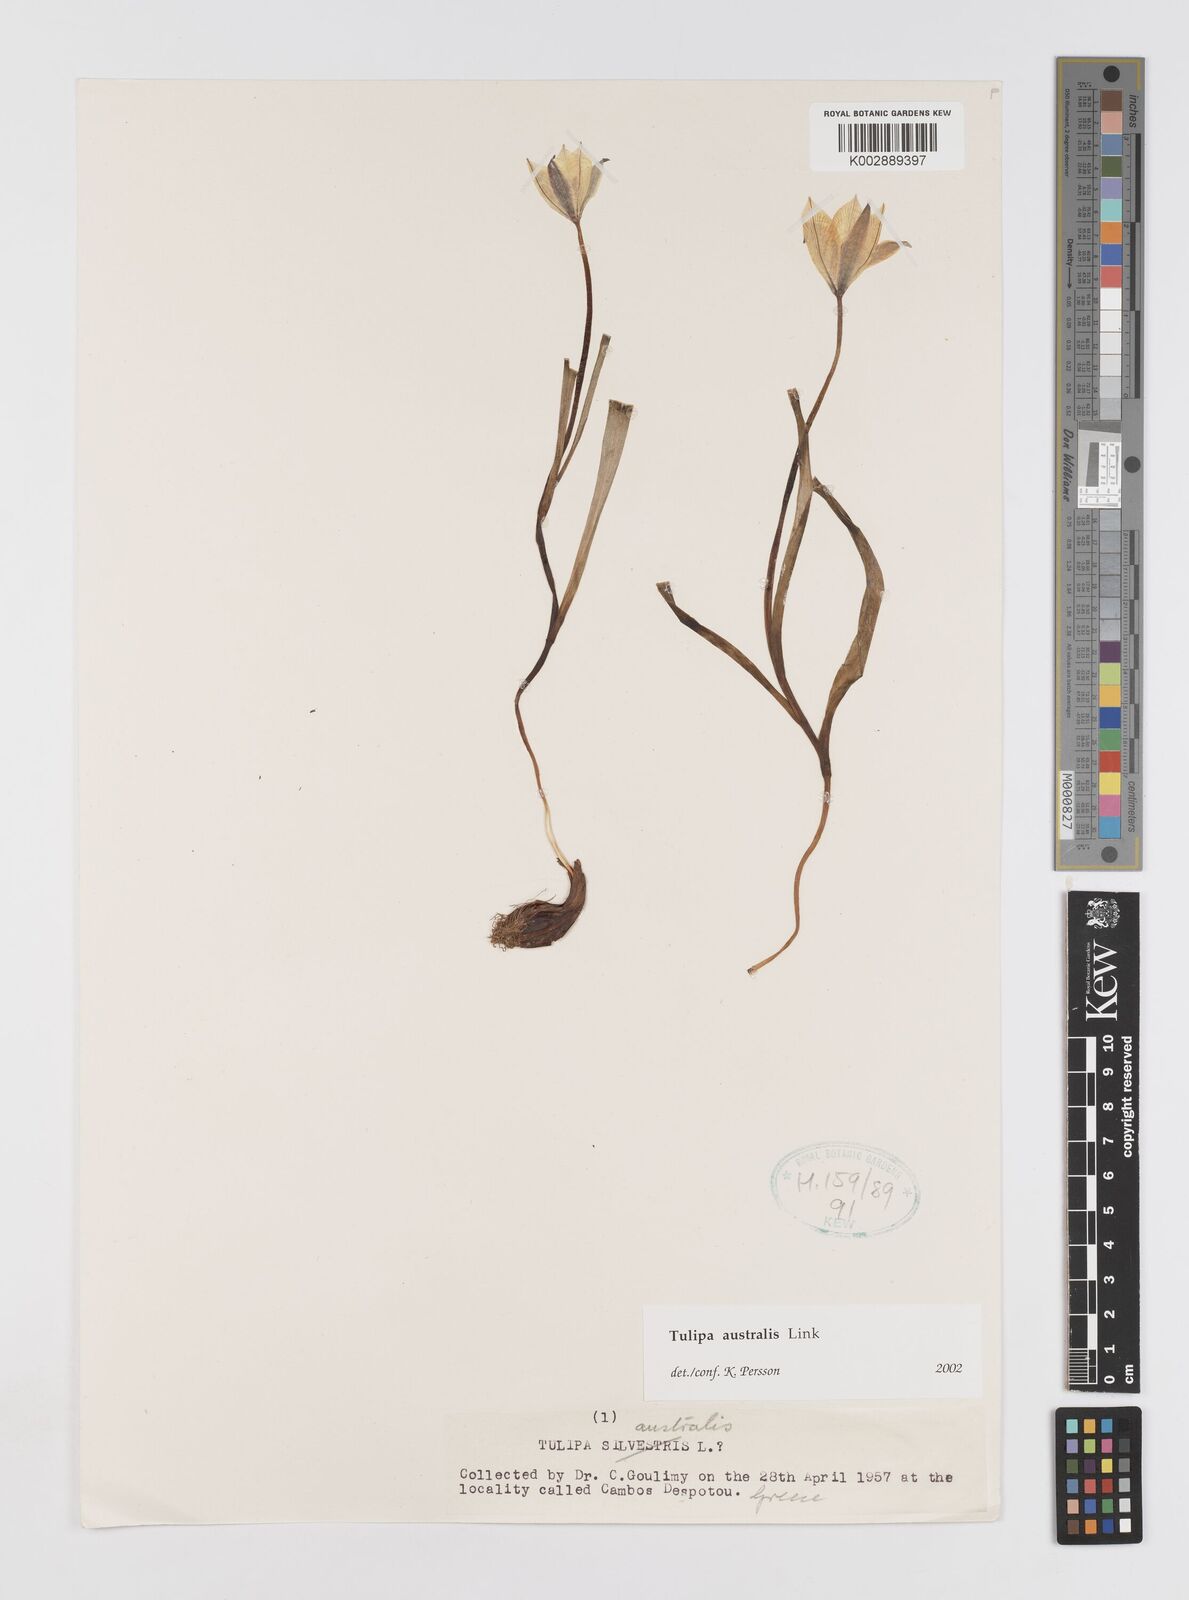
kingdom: Plantae
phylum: Tracheophyta
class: Liliopsida
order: Liliales
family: Liliaceae
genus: Tulipa
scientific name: Tulipa sylvestris
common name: Wild tulip
